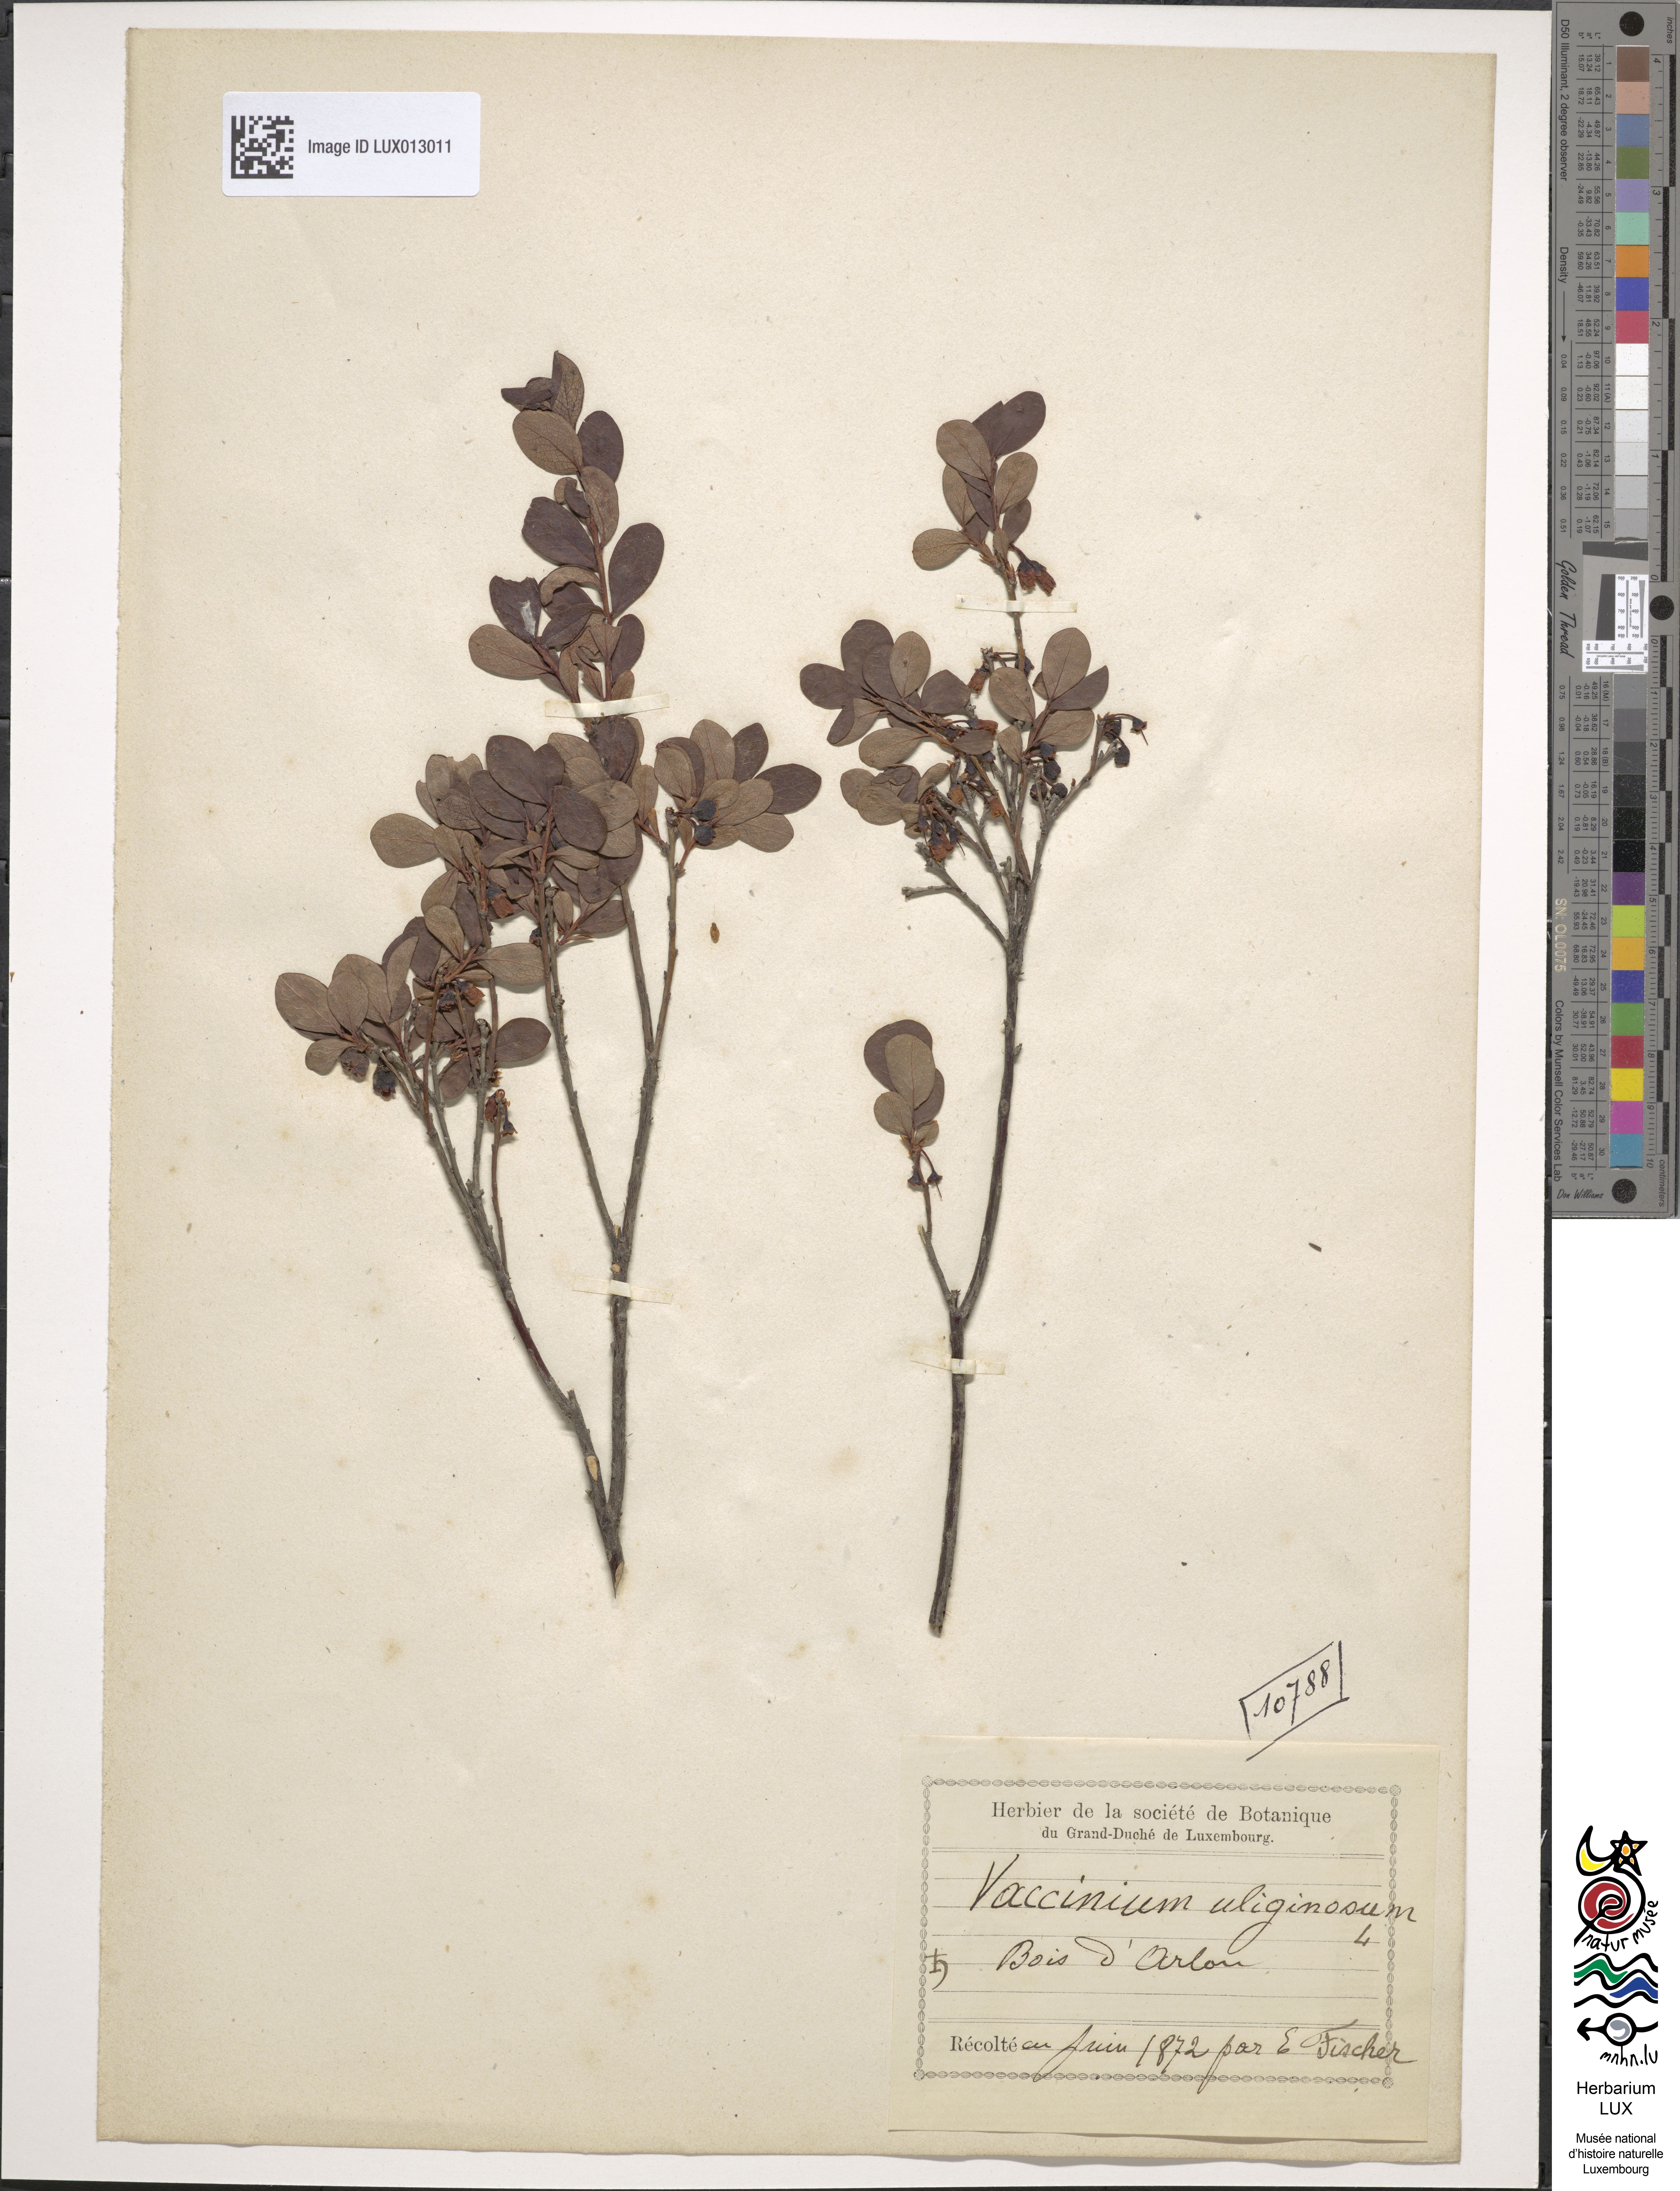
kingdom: Plantae
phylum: Tracheophyta
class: Magnoliopsida
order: Ericales
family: Ericaceae
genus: Vaccinium
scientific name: Vaccinium uliginosum
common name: Bog bilberry
